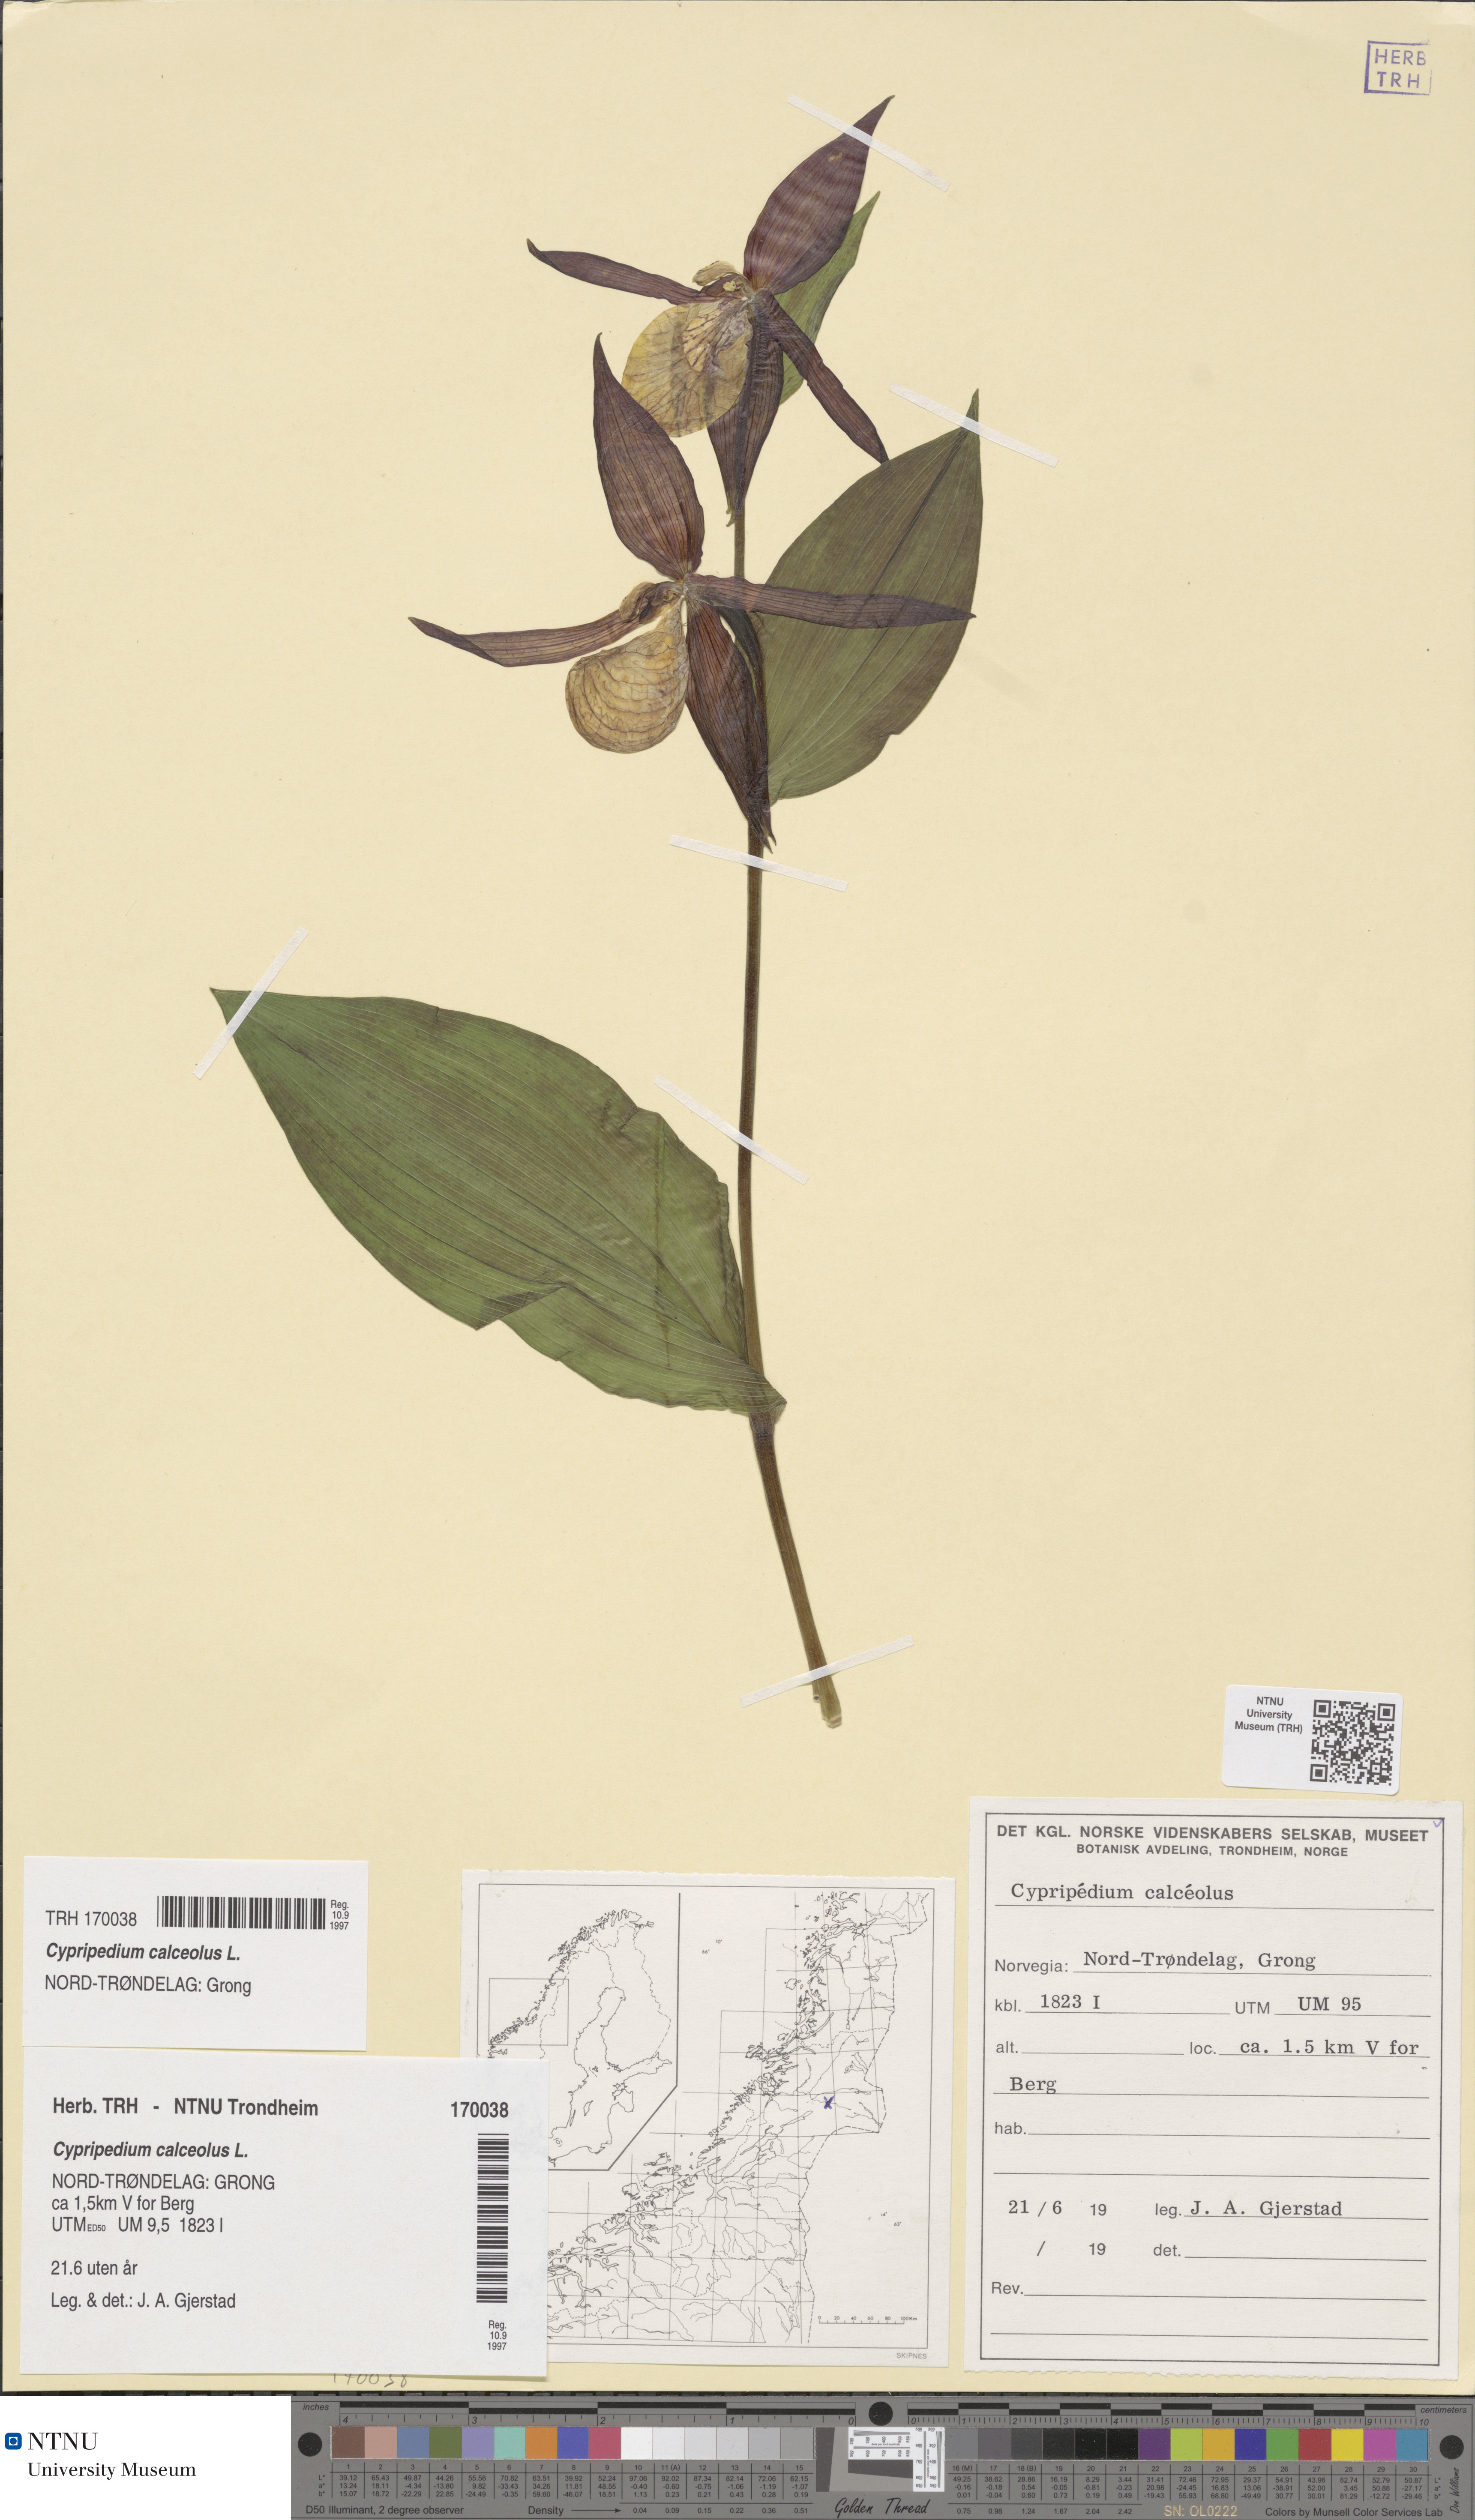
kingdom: Plantae
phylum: Tracheophyta
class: Liliopsida
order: Asparagales
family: Orchidaceae
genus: Cypripedium
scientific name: Cypripedium calceolus
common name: Lady's-slipper
